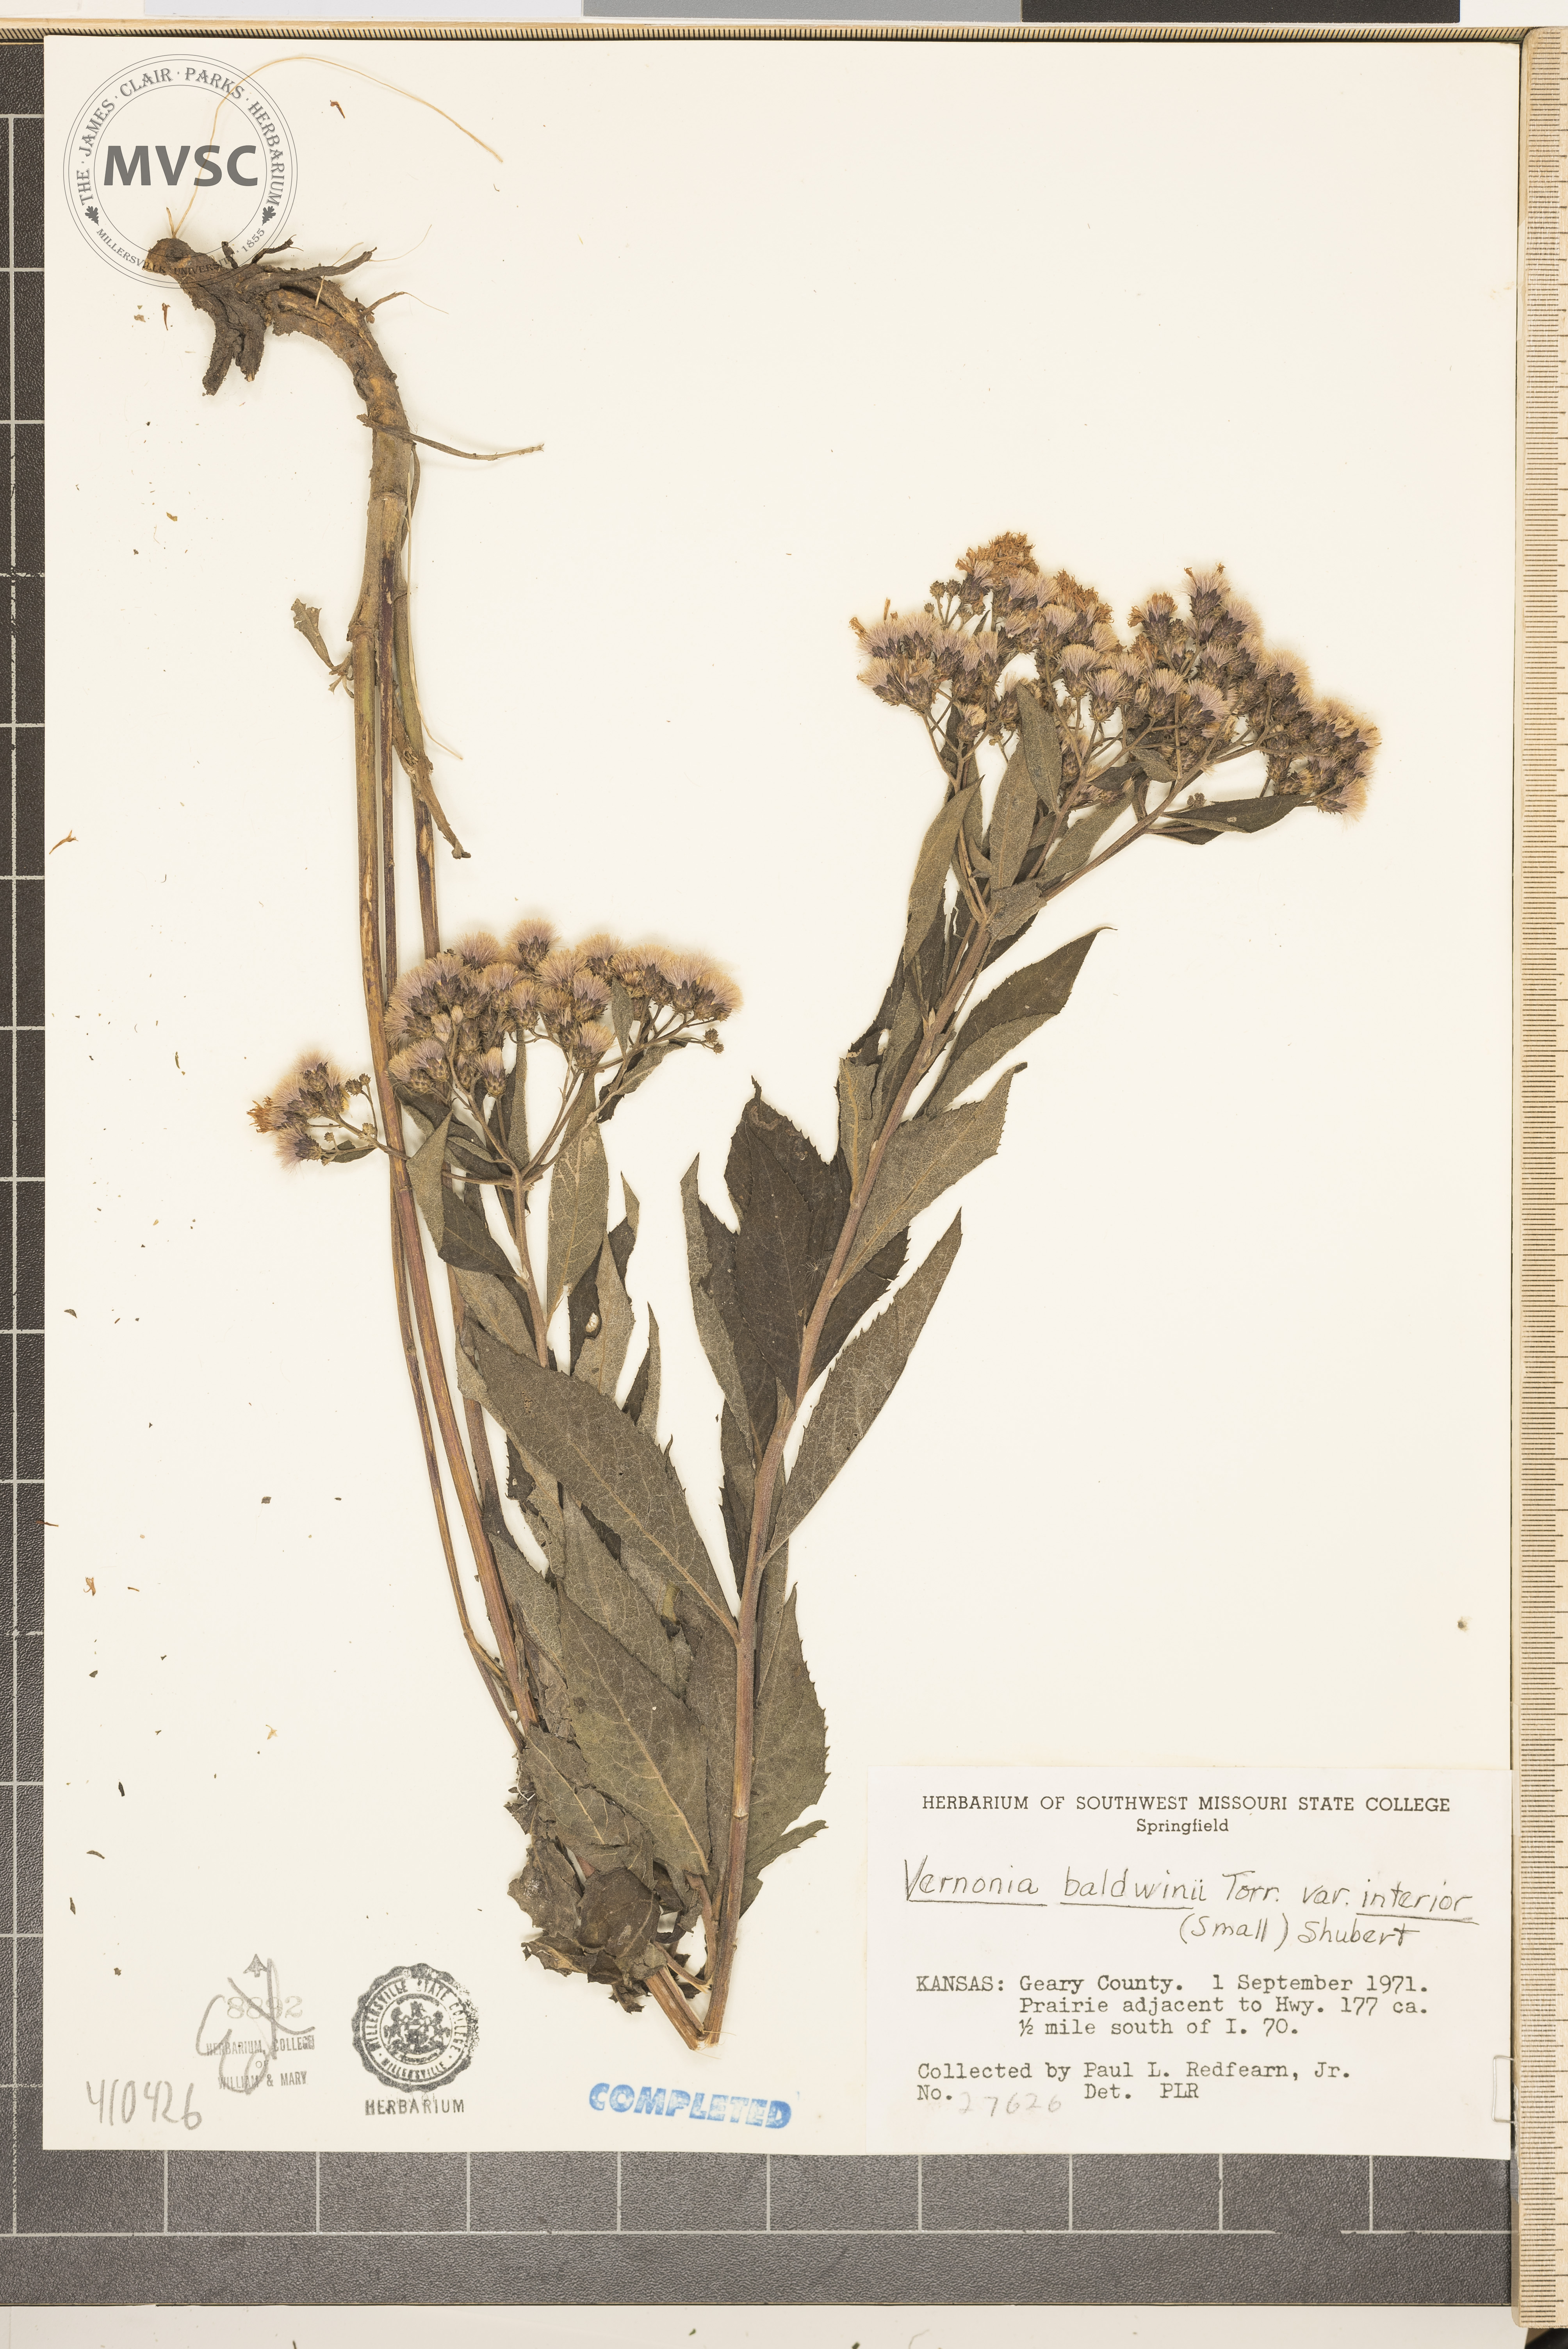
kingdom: Plantae
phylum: Tracheophyta
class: Magnoliopsida
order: Asterales
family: Asteraceae
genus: Vernonia
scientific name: Vernonia baldwinii
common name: Western ironweed
